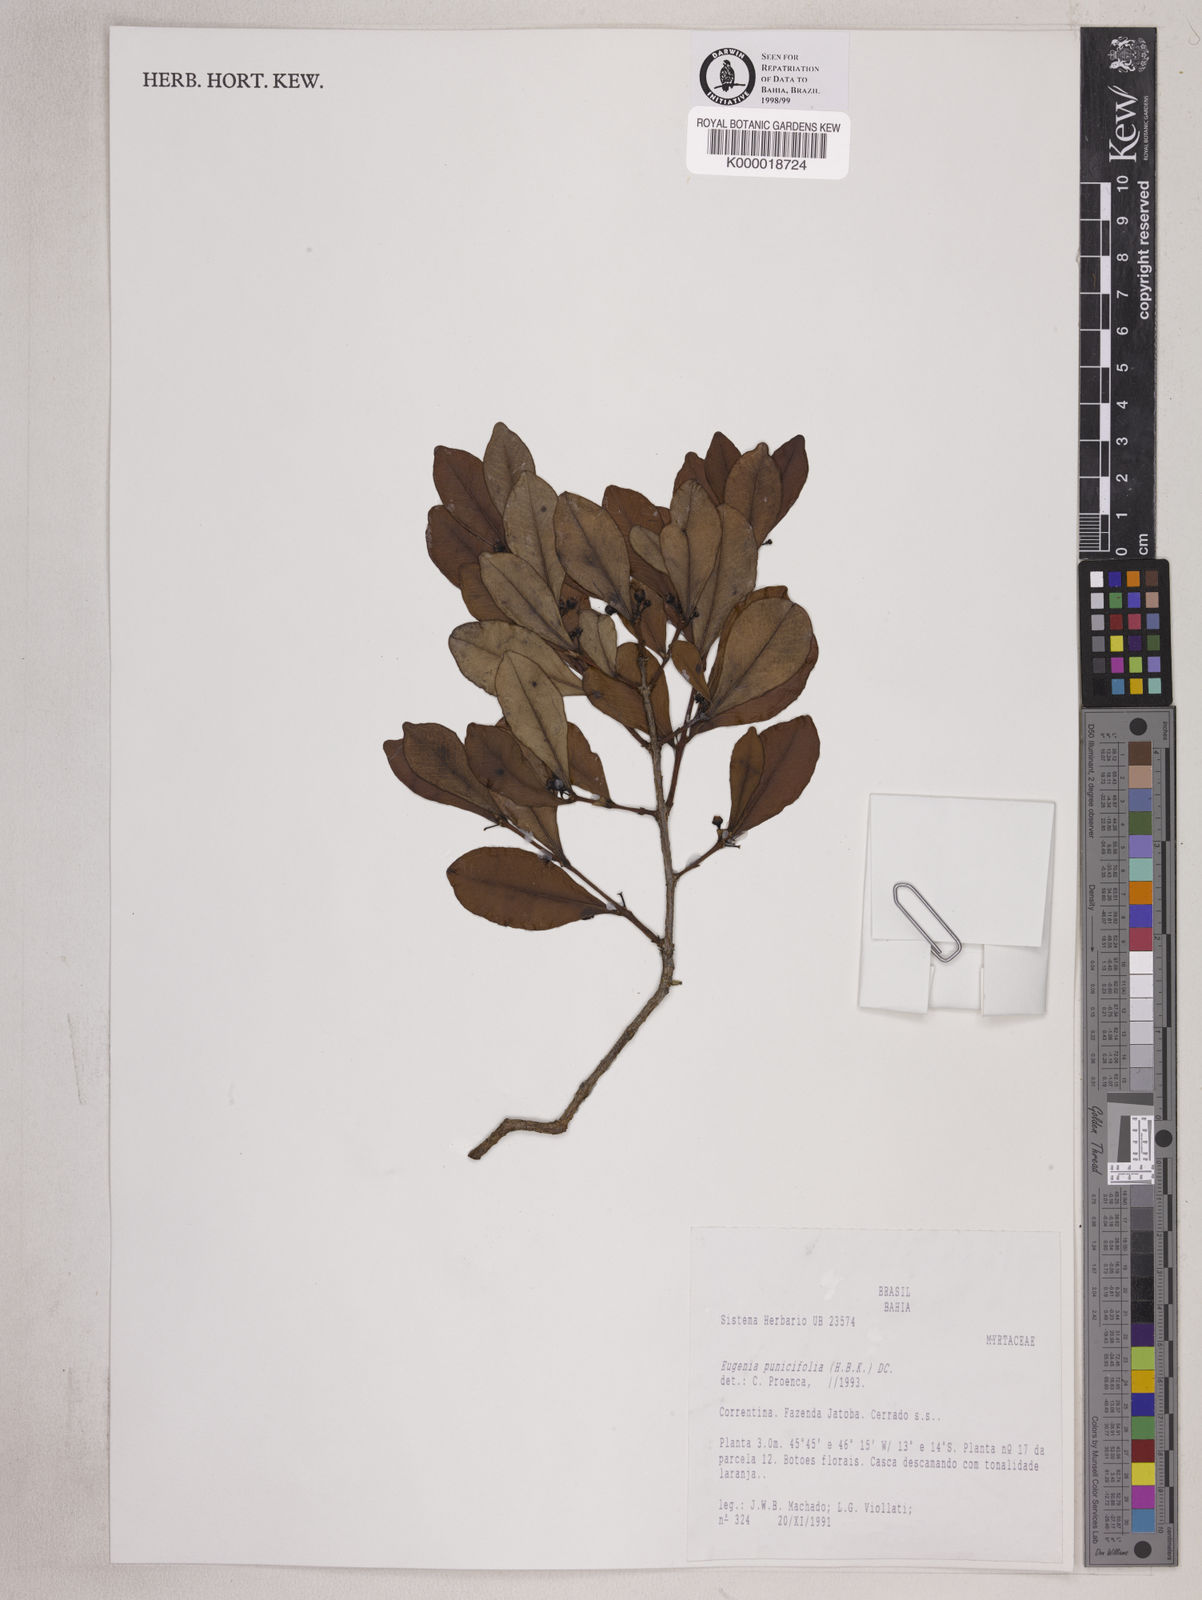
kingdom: Plantae
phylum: Tracheophyta
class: Magnoliopsida
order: Myrtales
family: Myrtaceae
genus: Eugenia
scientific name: Eugenia punicifolia
